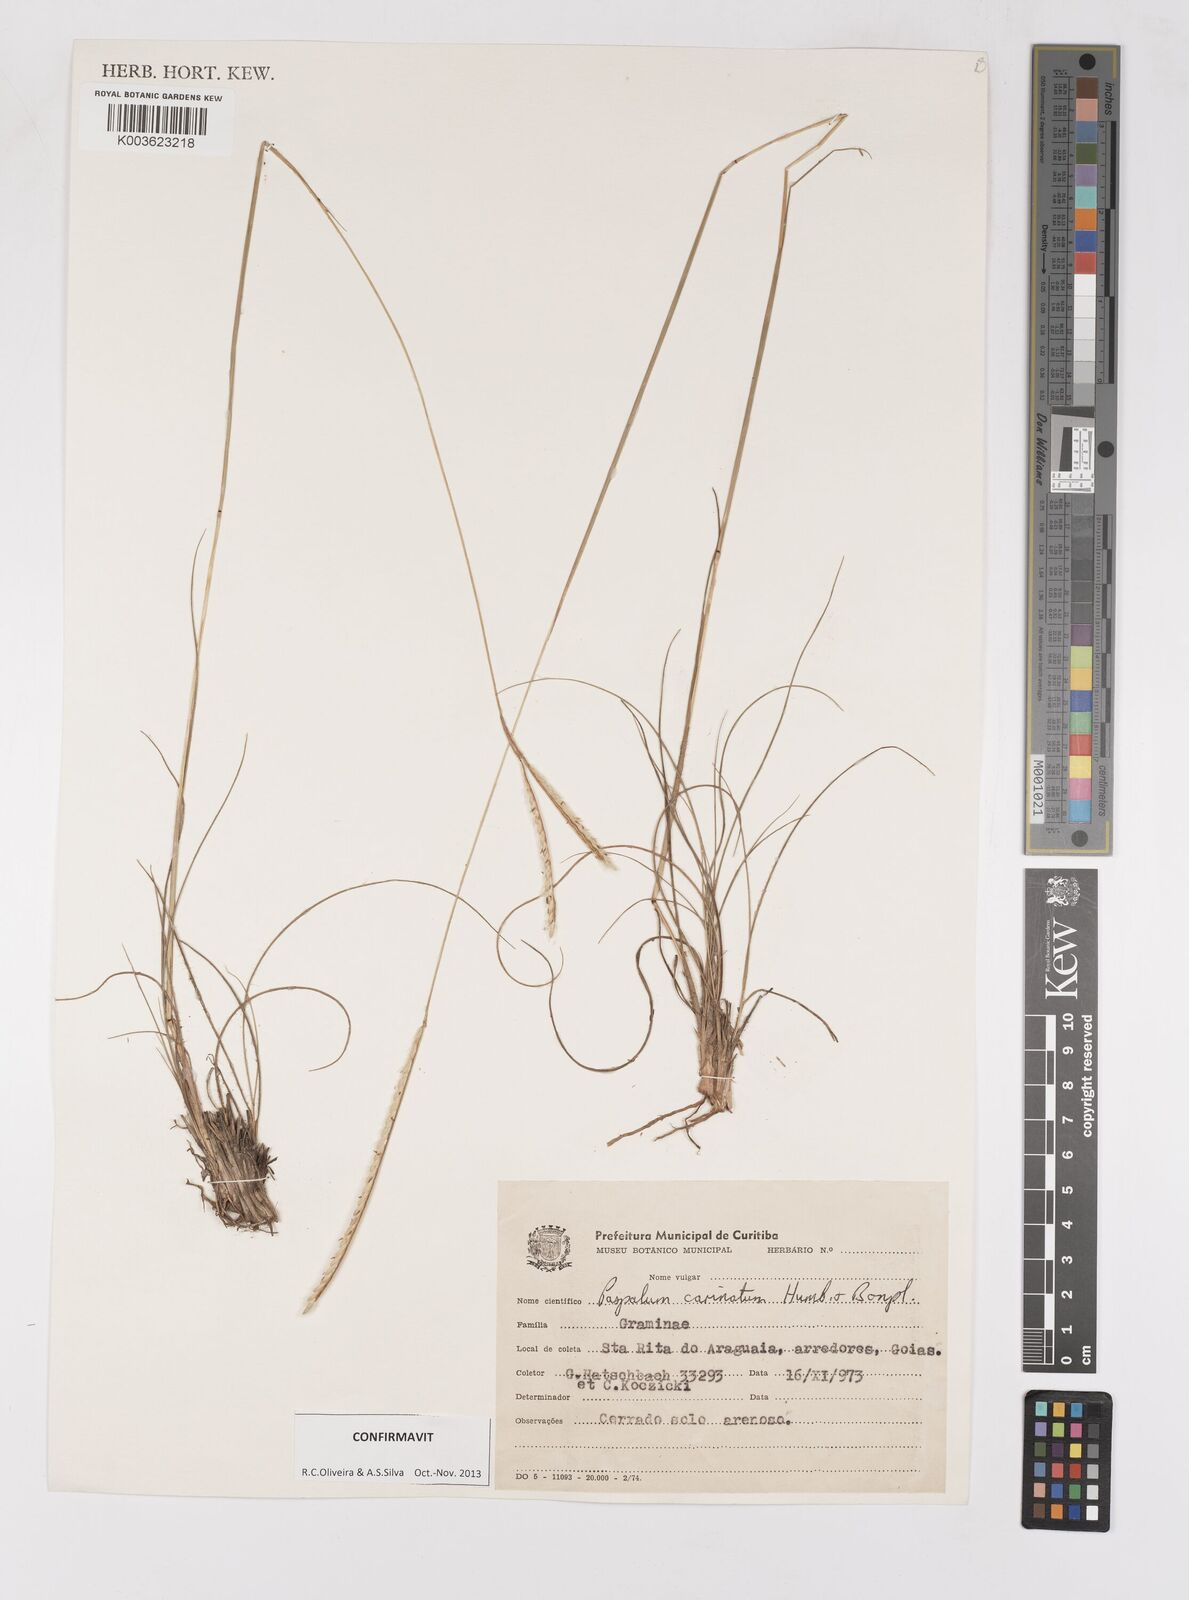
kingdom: Plantae
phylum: Tracheophyta
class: Liliopsida
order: Poales
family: Poaceae
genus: Paspalum
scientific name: Paspalum carinatum
